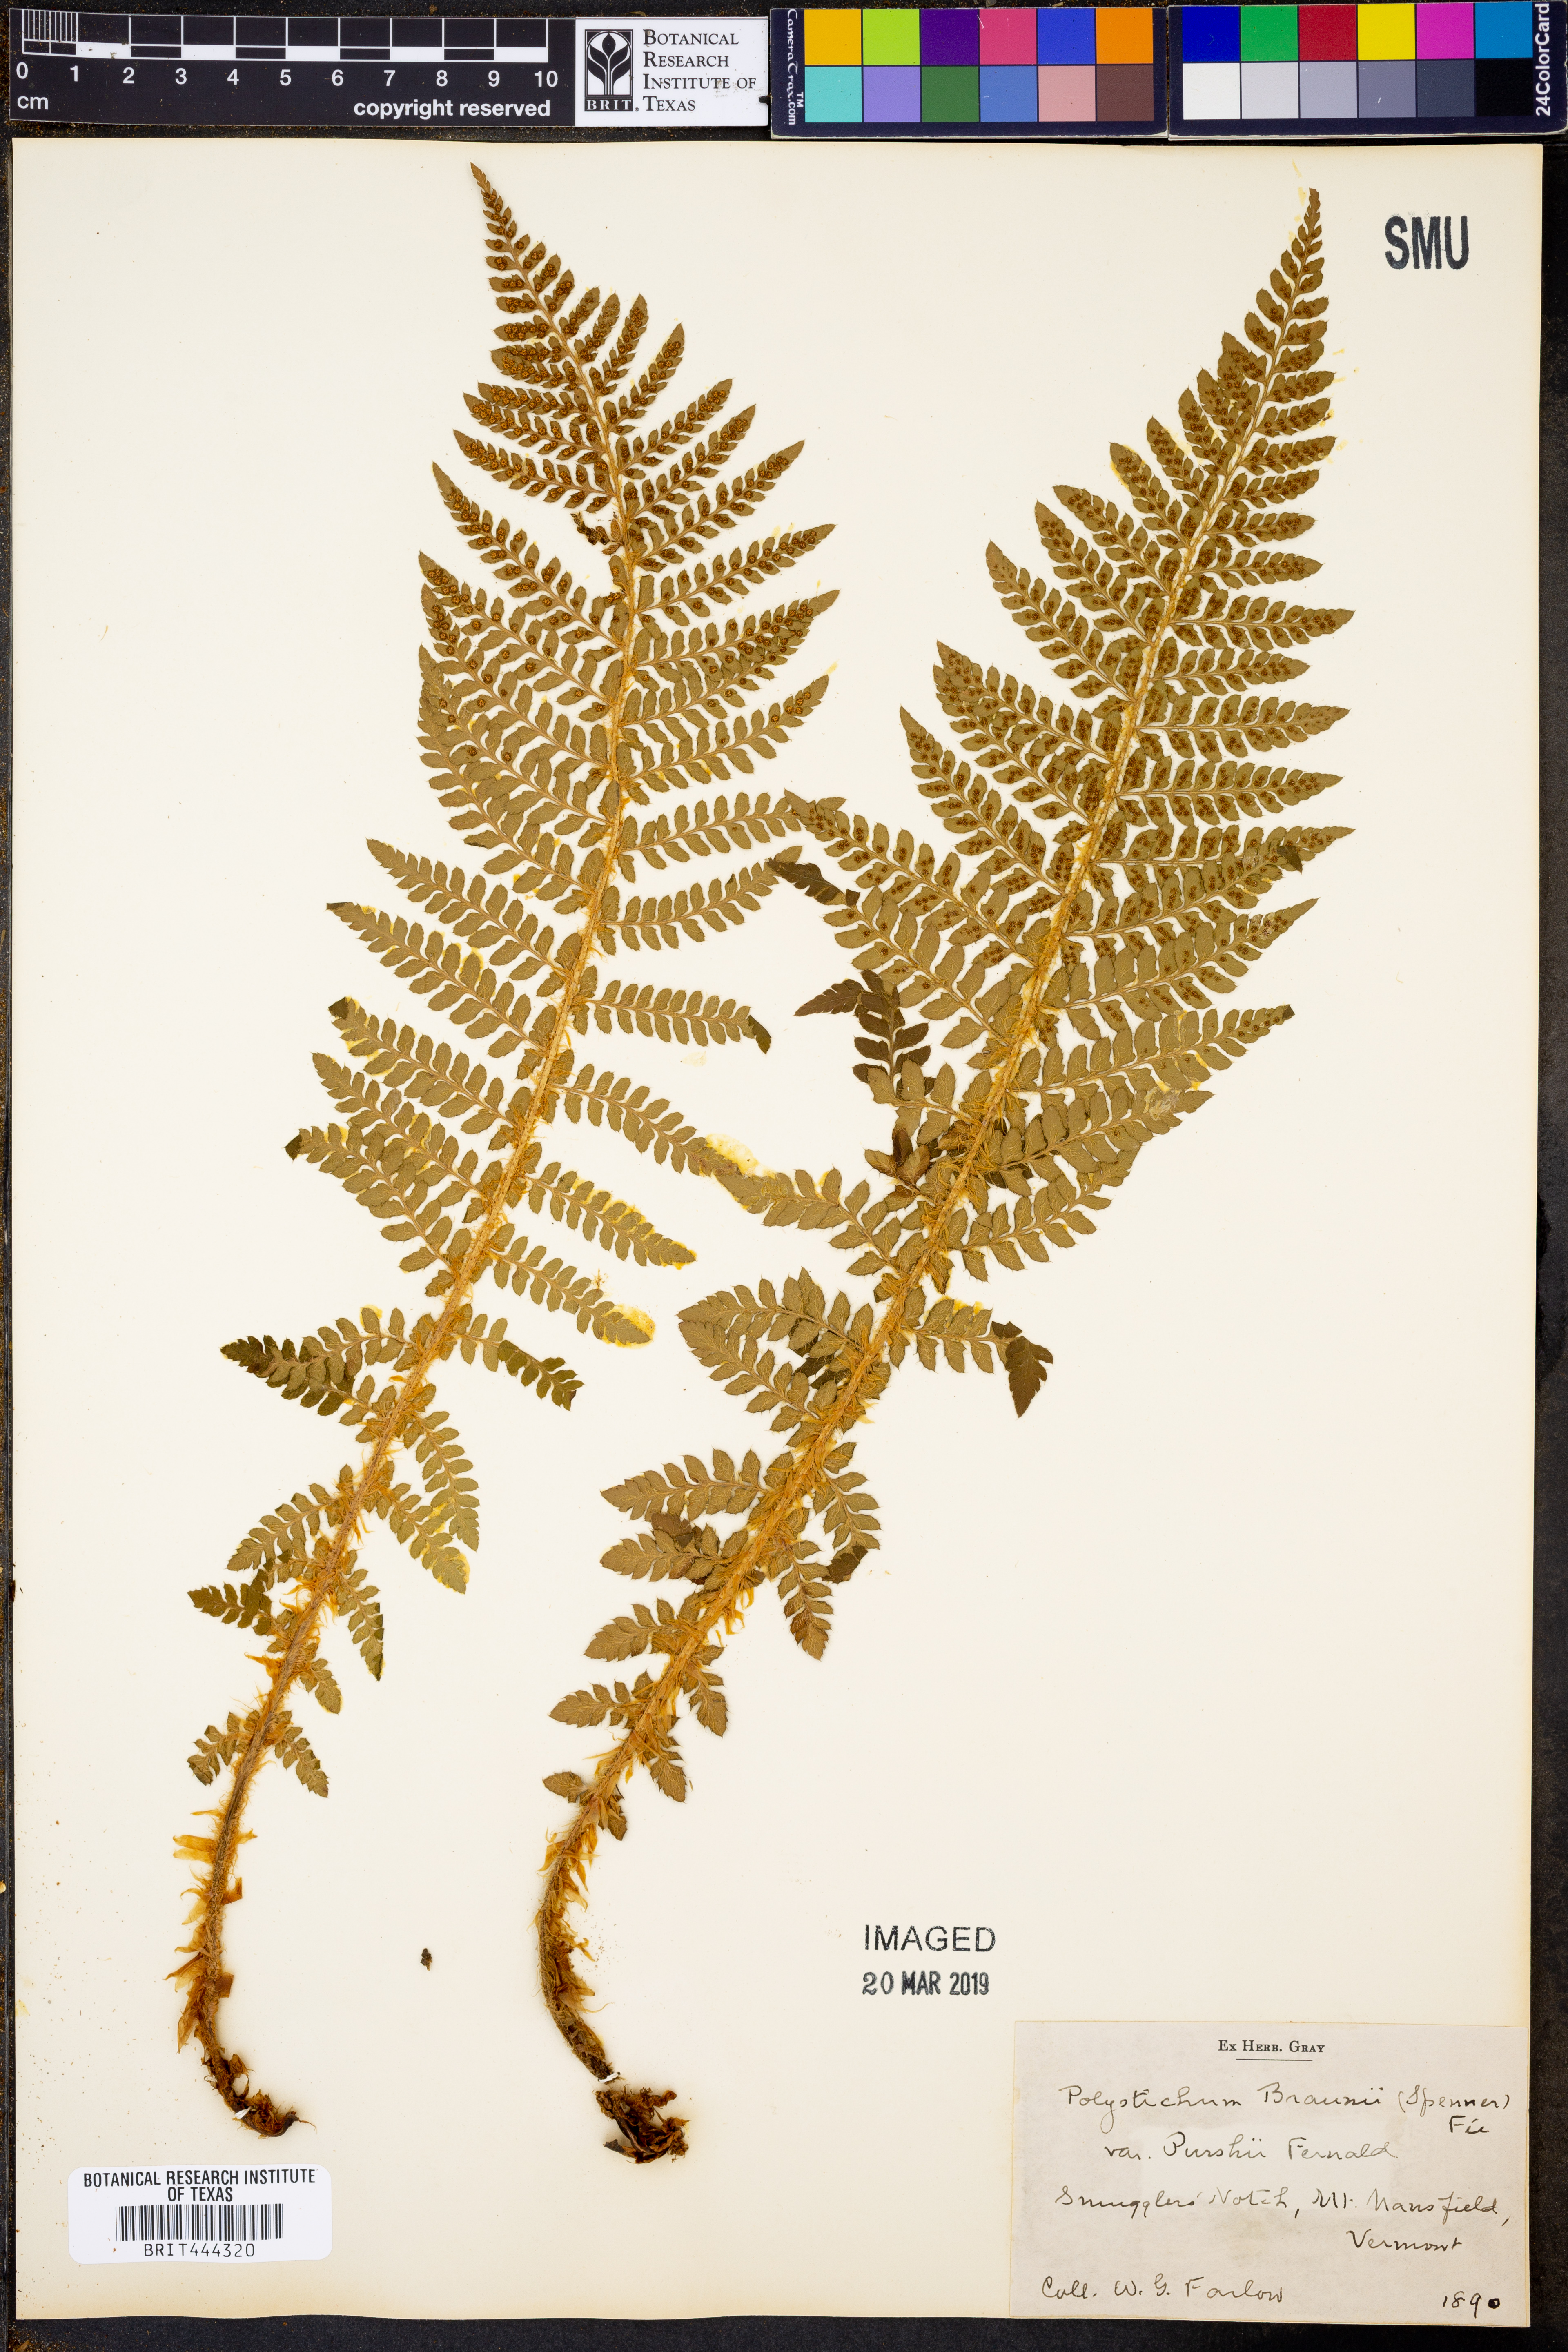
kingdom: Plantae
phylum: Tracheophyta
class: Polypodiopsida
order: Polypodiales
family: Dryopteridaceae
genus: Polystichum
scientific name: Polystichum braunii
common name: Braun's holly fern
